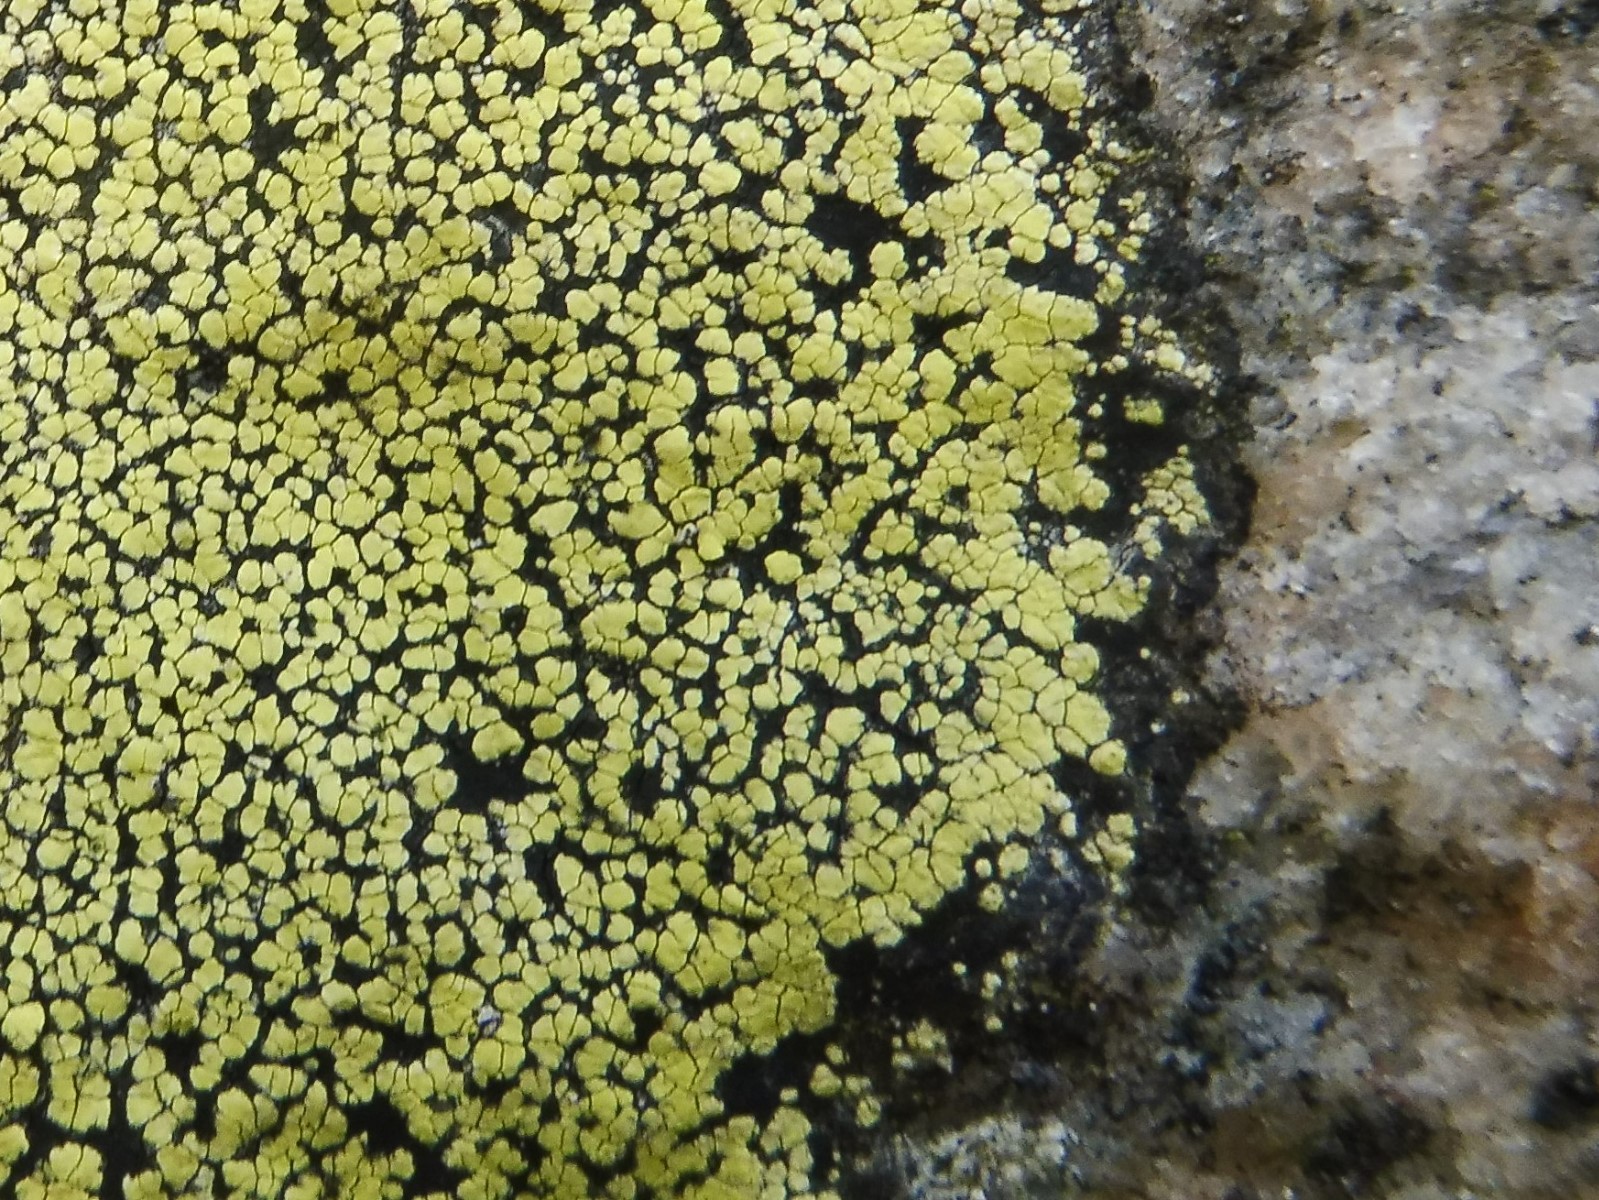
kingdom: Fungi
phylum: Ascomycota
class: Lecanoromycetes
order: Rhizocarpales
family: Rhizocarpaceae
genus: Rhizocarpon
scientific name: Rhizocarpon geographicum
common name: gulgrøn landkortlav
